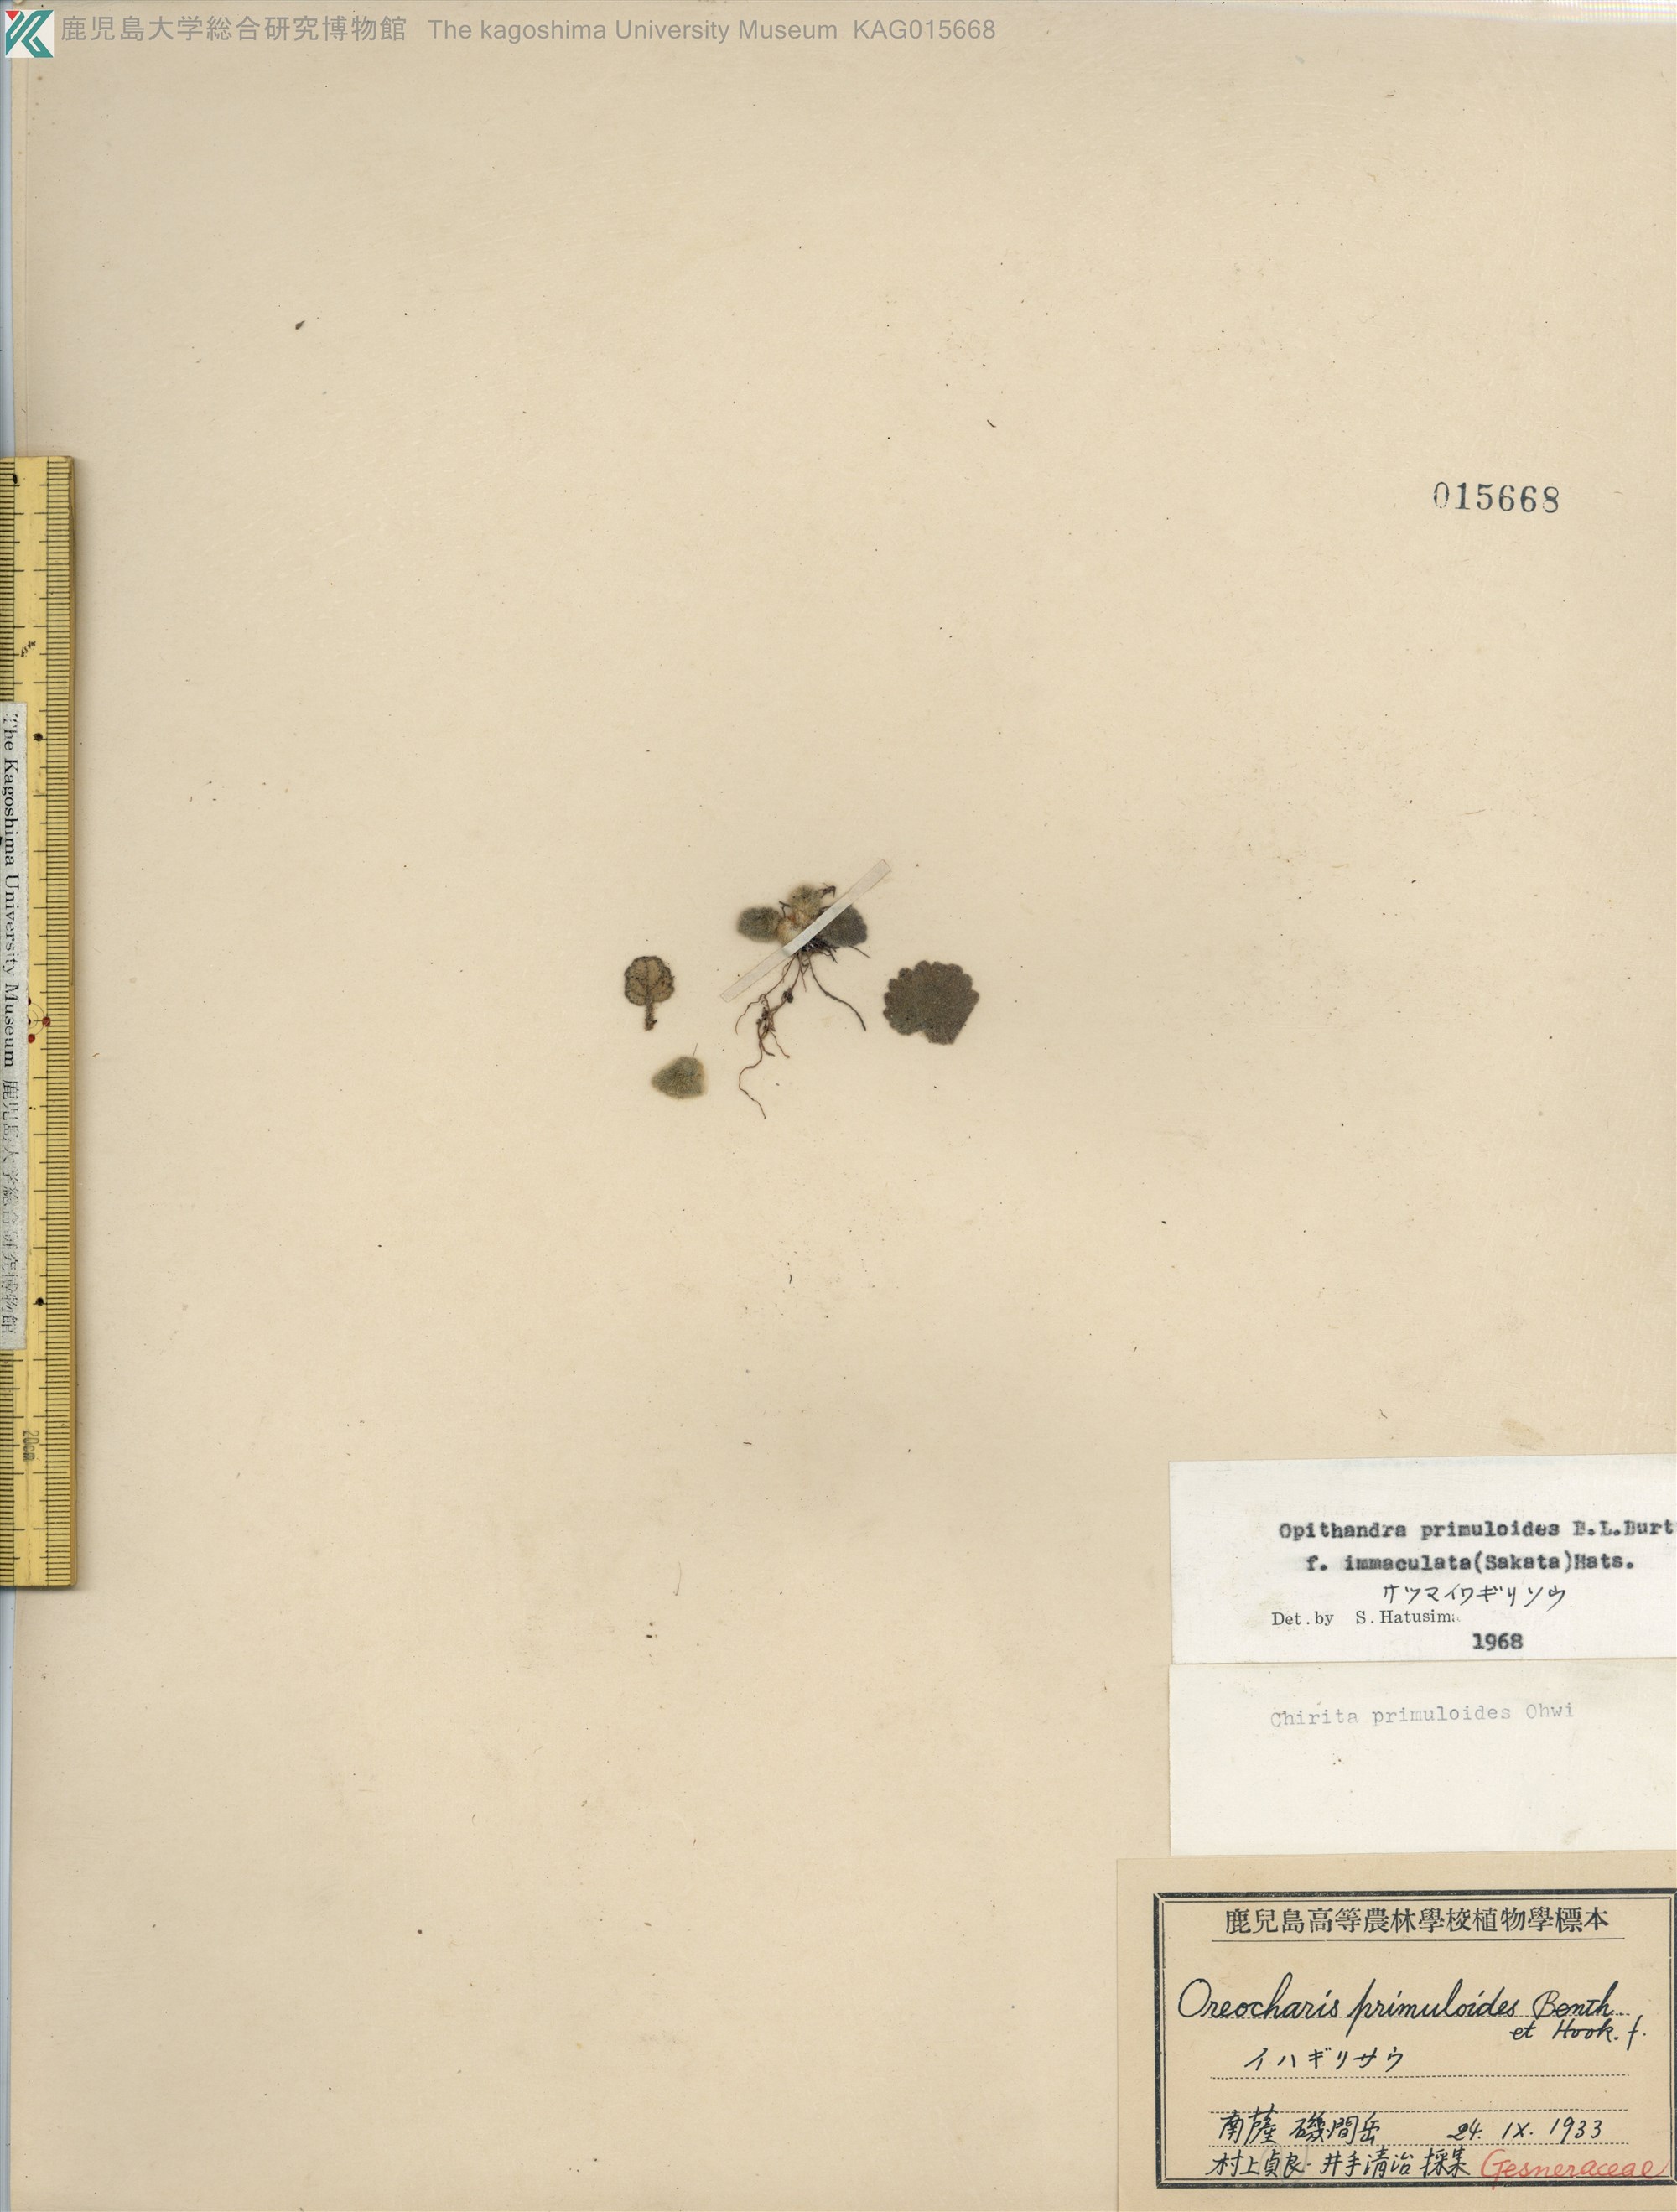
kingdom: Plantae
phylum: Tracheophyta
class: Magnoliopsida
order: Lamiales
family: Gesneriaceae
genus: Oreocharis
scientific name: Oreocharis primuloides
